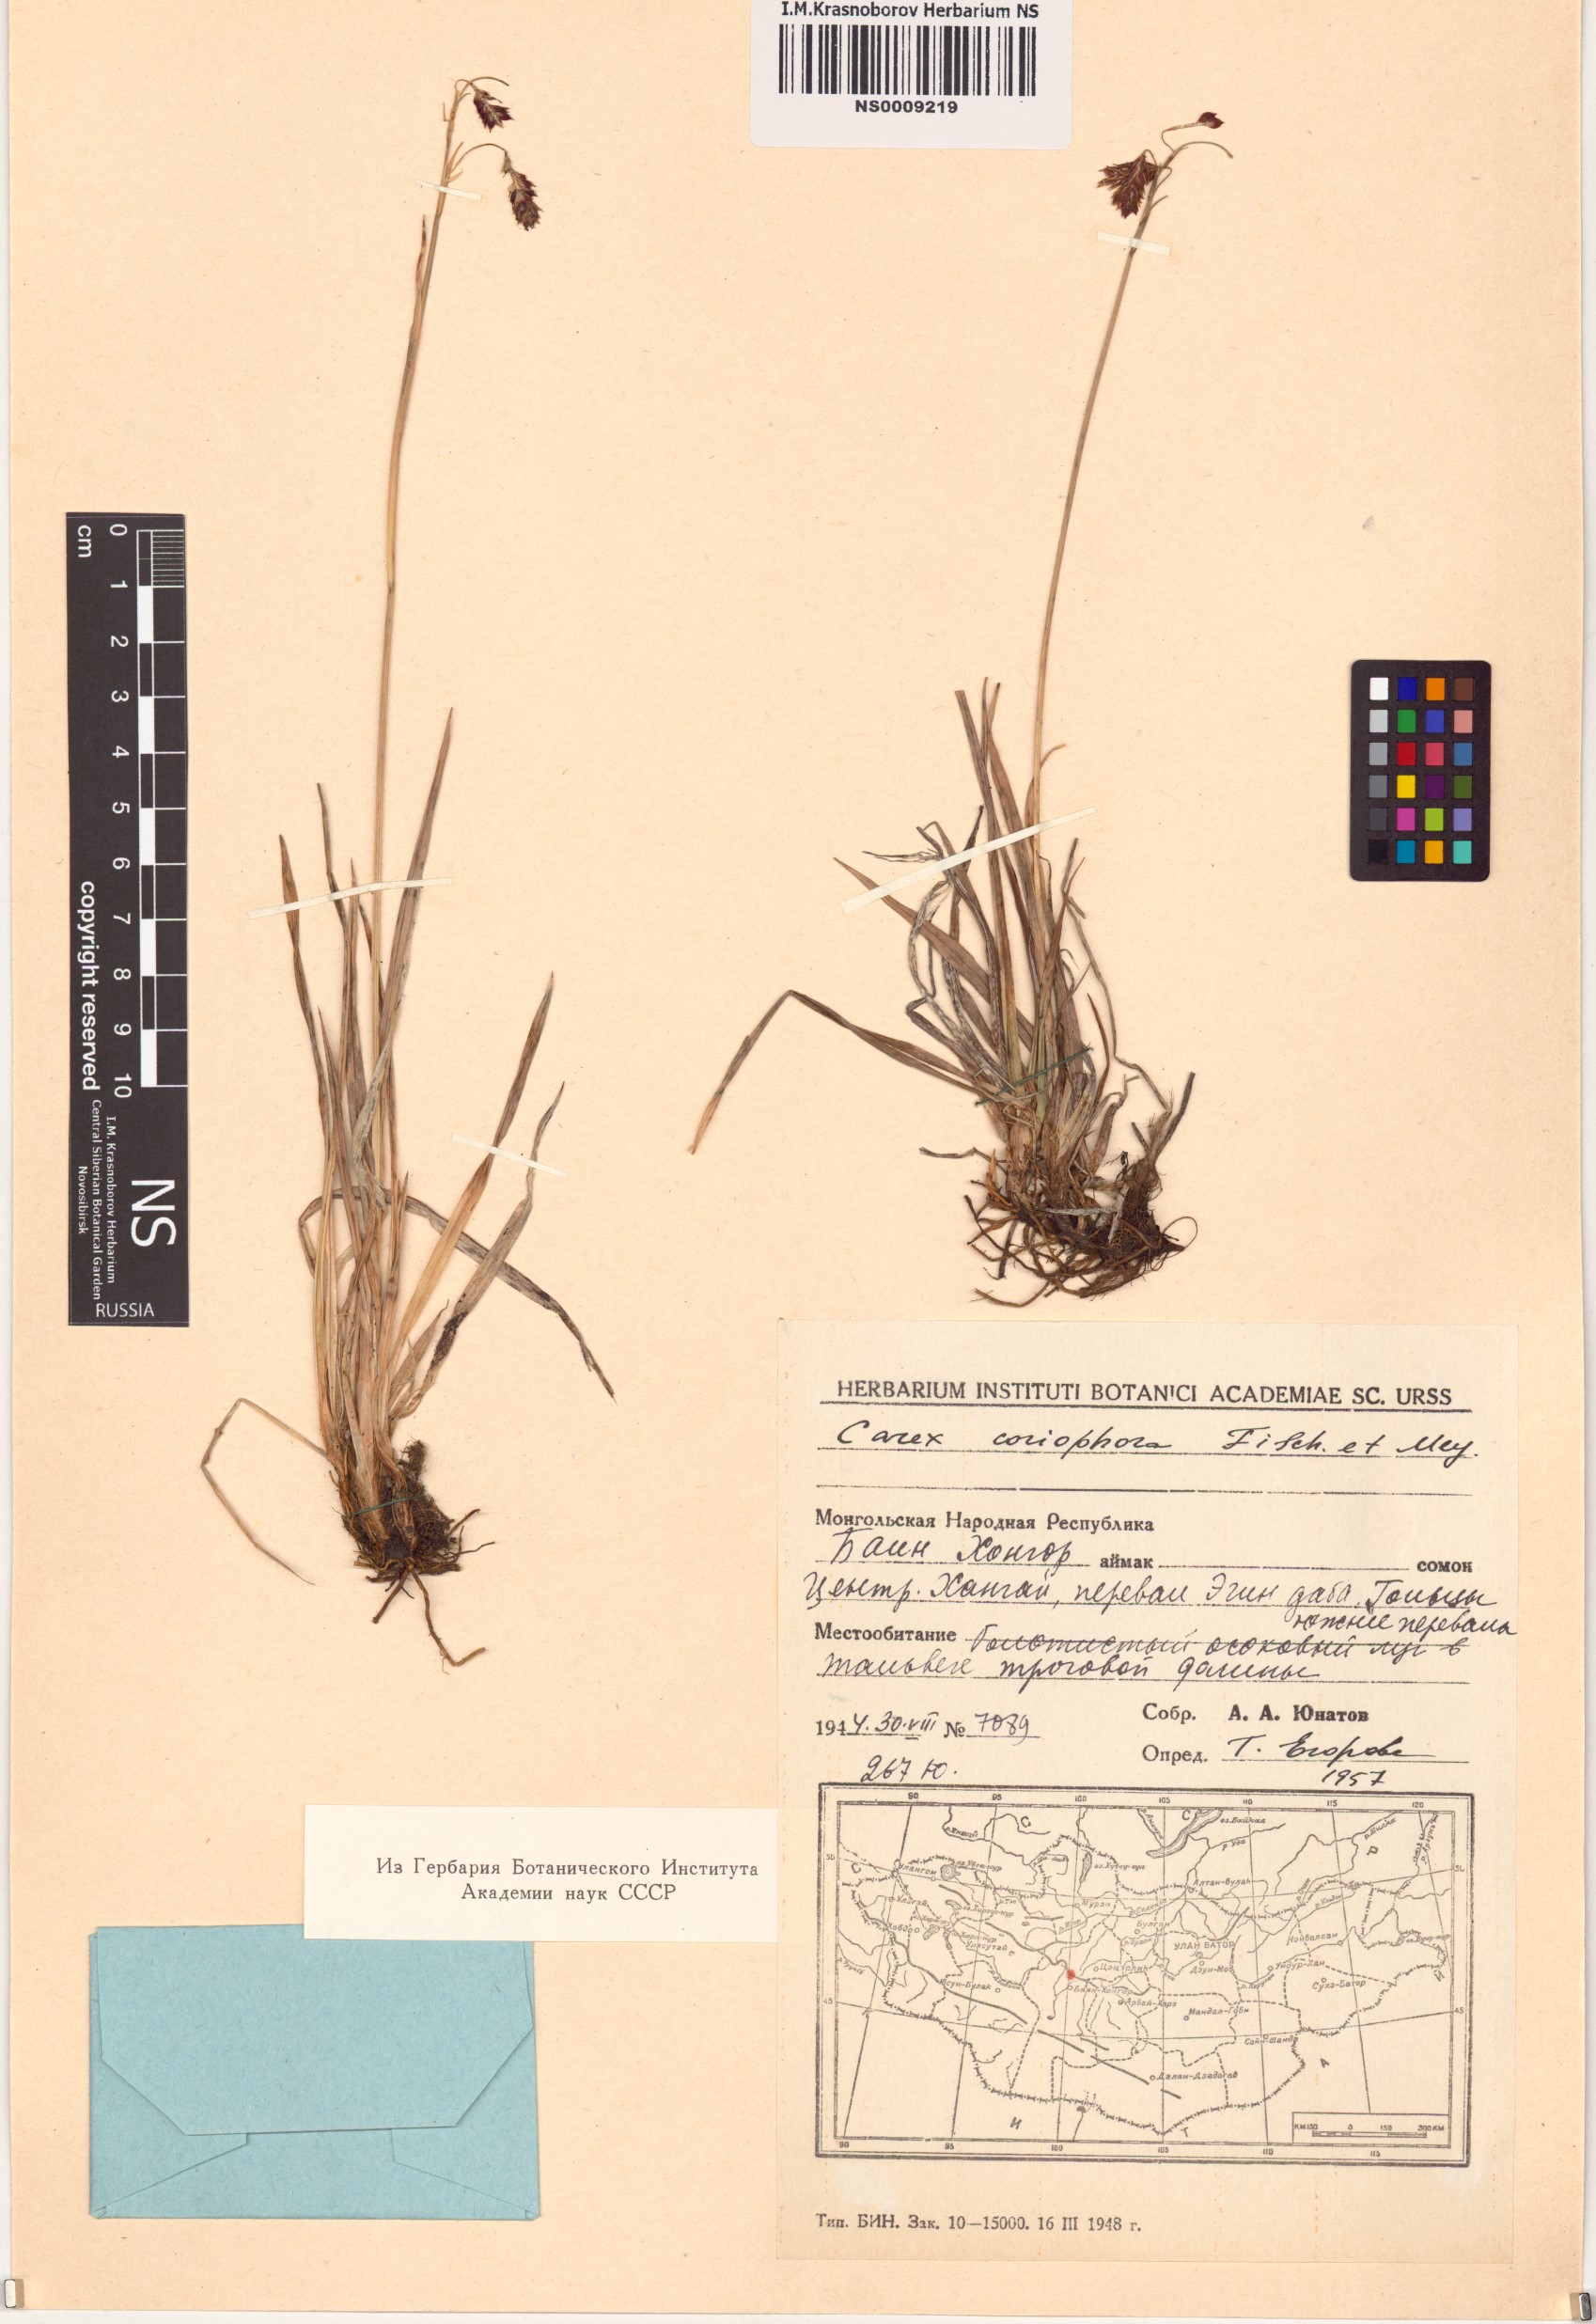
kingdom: Plantae
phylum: Tracheophyta
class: Liliopsida
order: Poales
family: Cyperaceae
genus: Carex
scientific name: Carex coriophora
